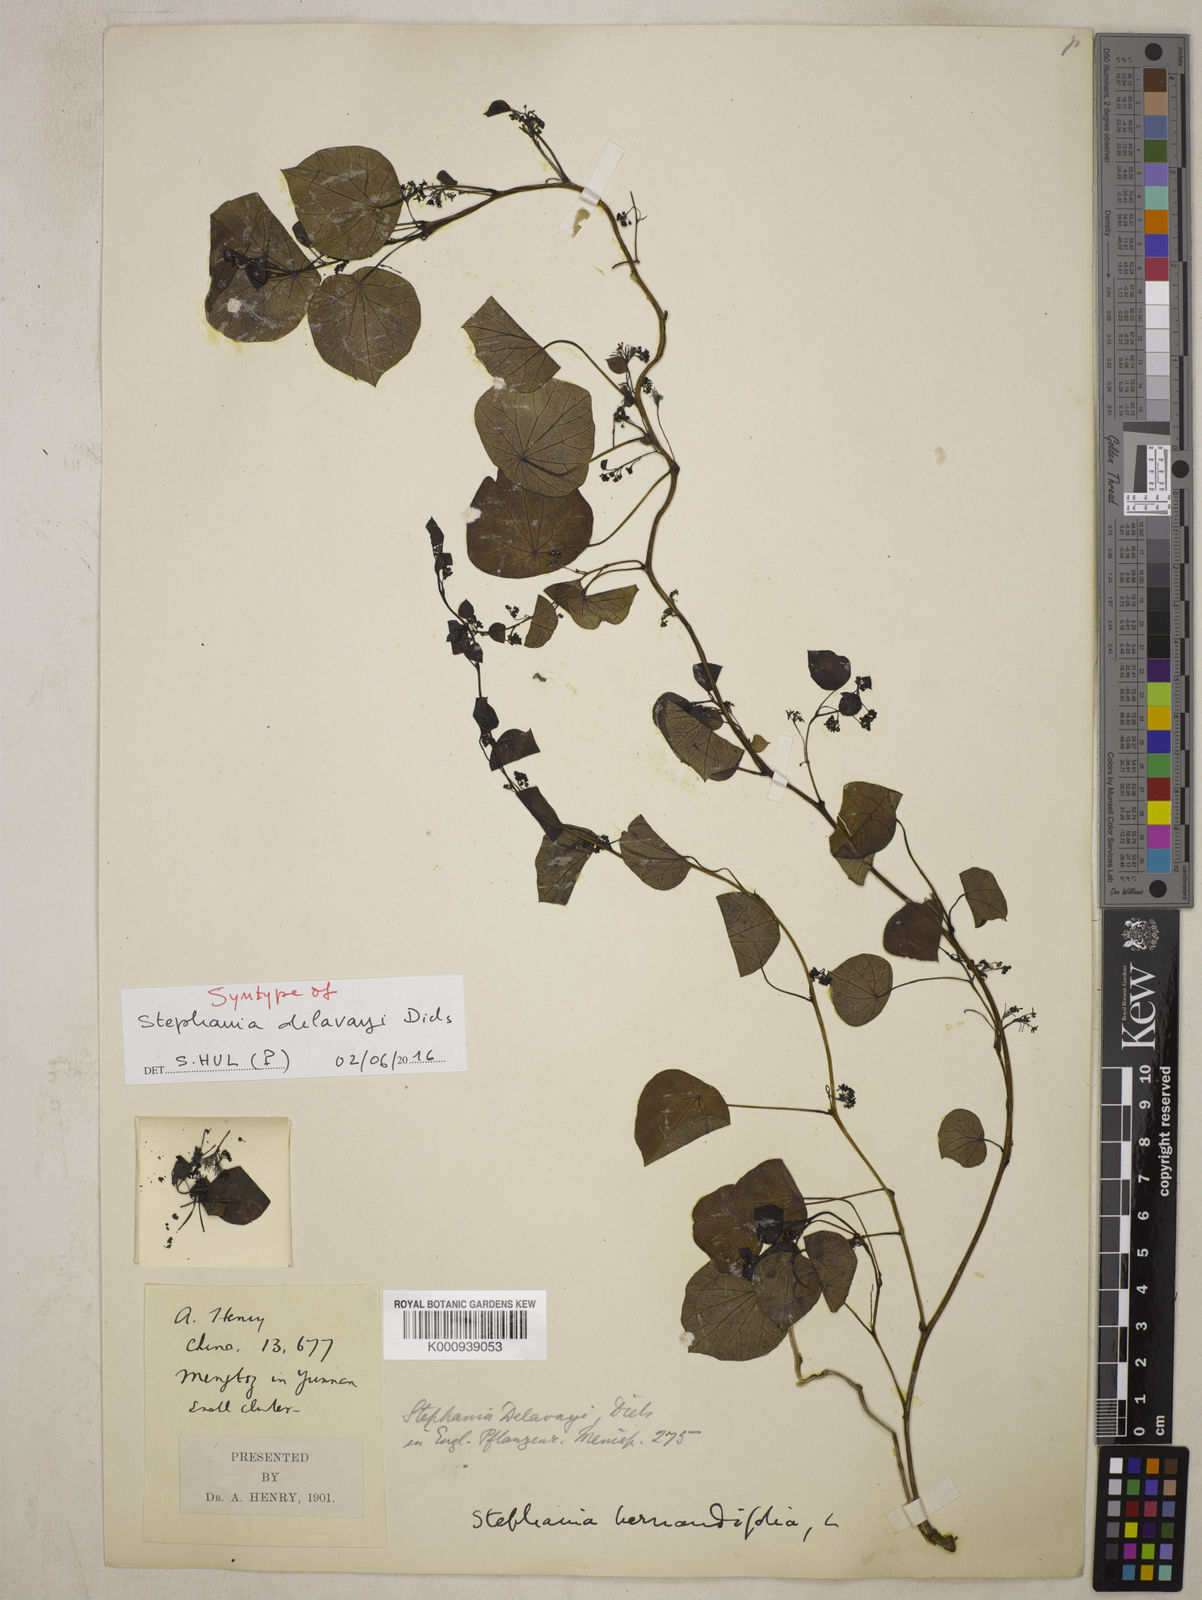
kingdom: Plantae
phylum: Tracheophyta
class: Magnoliopsida
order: Ranunculales
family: Menispermaceae
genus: Stephania
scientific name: Stephania delavayi
